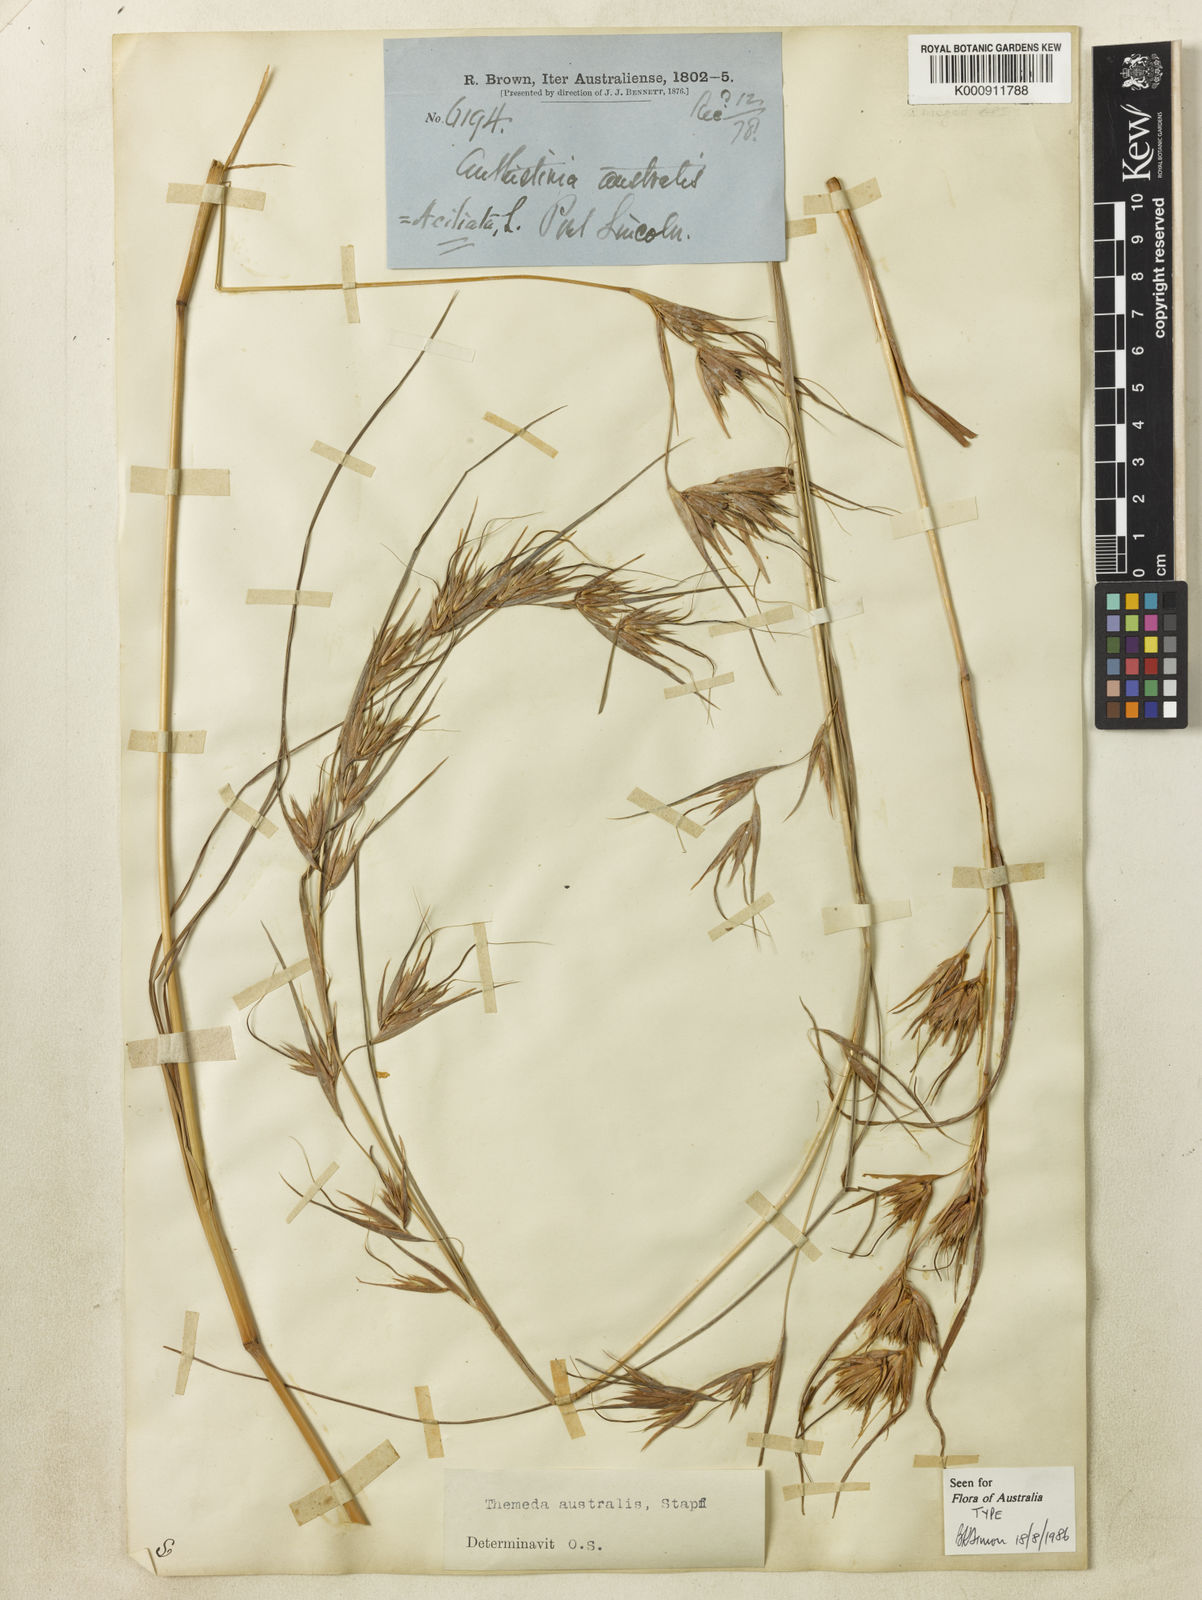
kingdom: Plantae
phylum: Tracheophyta
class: Liliopsida
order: Poales
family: Poaceae
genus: Themeda
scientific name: Themeda triandra
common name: Kangaroo grass
